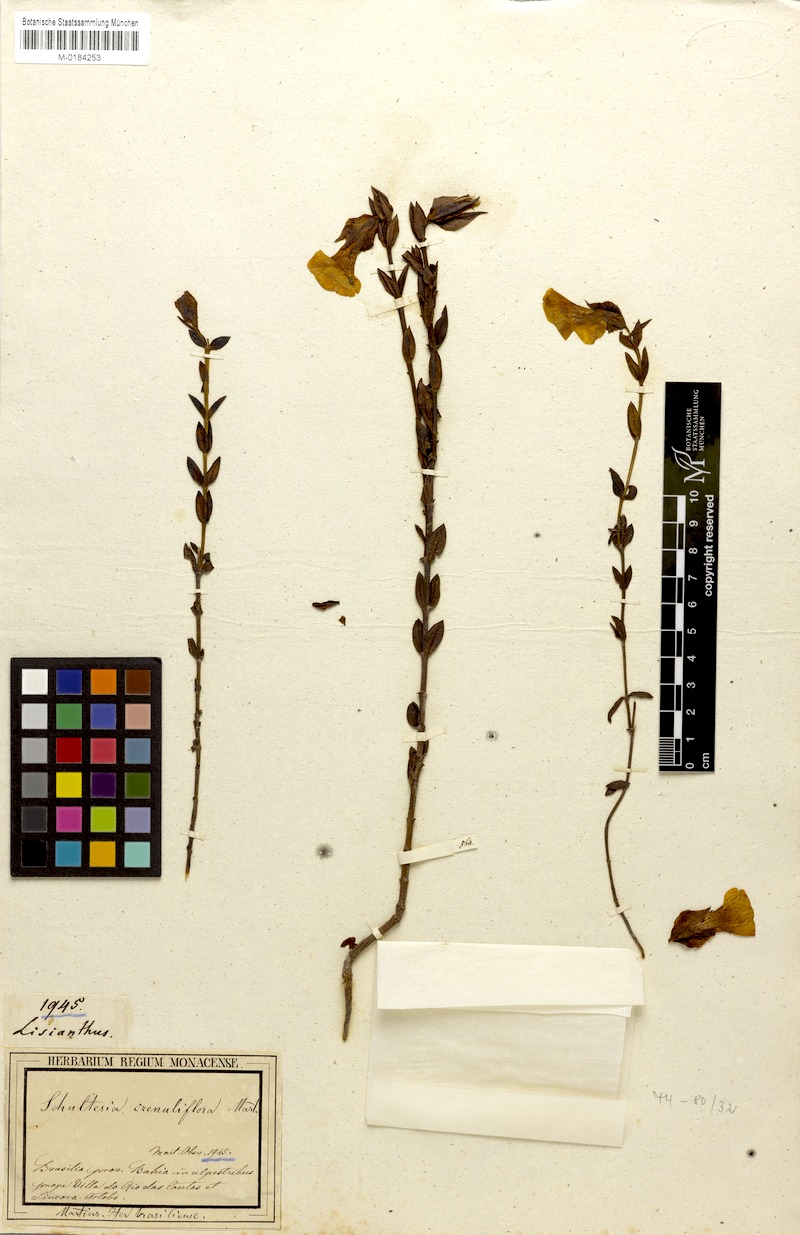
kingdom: Plantae
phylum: Tracheophyta
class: Magnoliopsida
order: Gentianales
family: Gentianaceae
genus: Schultesia
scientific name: Schultesia crenuliflora
